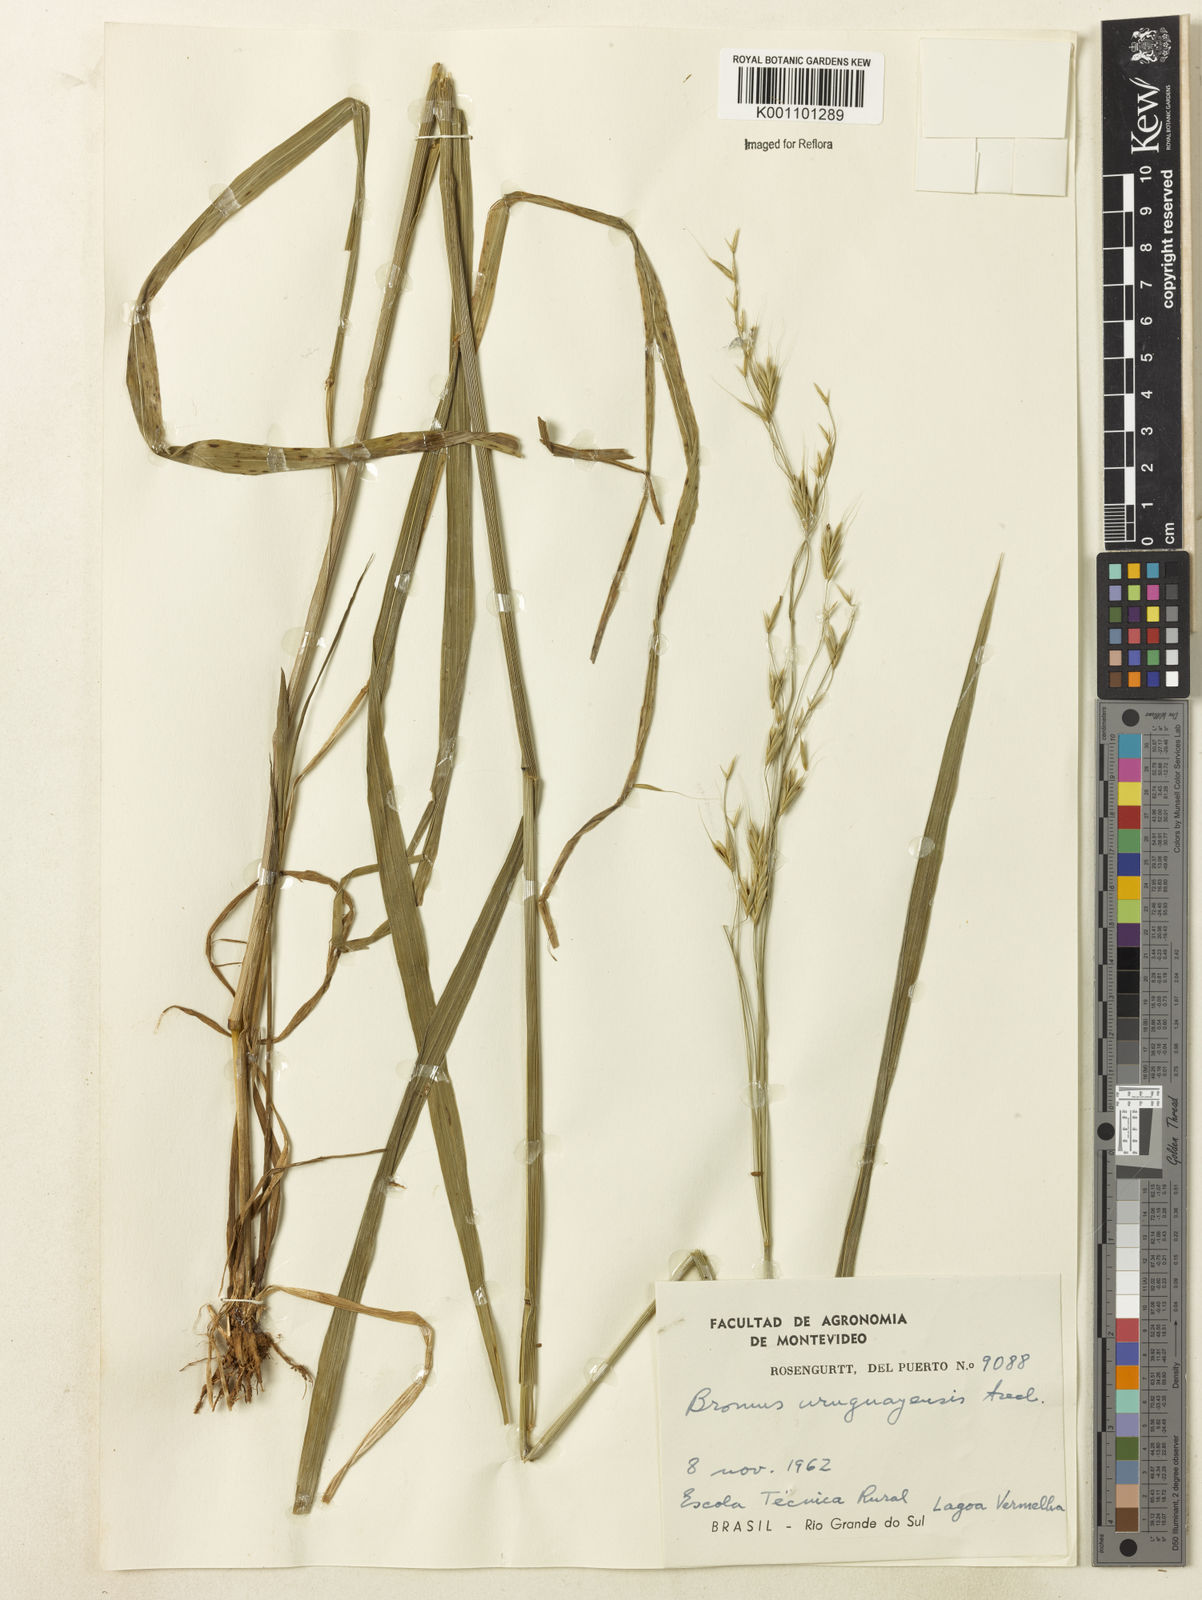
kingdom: Plantae
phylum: Tracheophyta
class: Liliopsida
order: Poales
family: Poaceae
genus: Bromus
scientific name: Bromus
